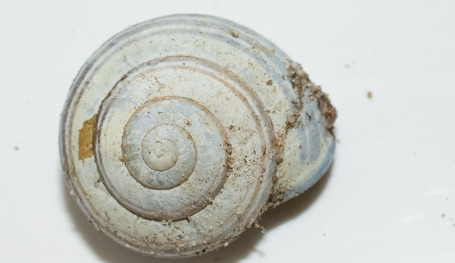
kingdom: Animalia
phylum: Mollusca
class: Gastropoda
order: Stylommatophora
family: Helicidae
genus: Cepaea
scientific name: Cepaea nemoralis
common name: Lundsnegl
